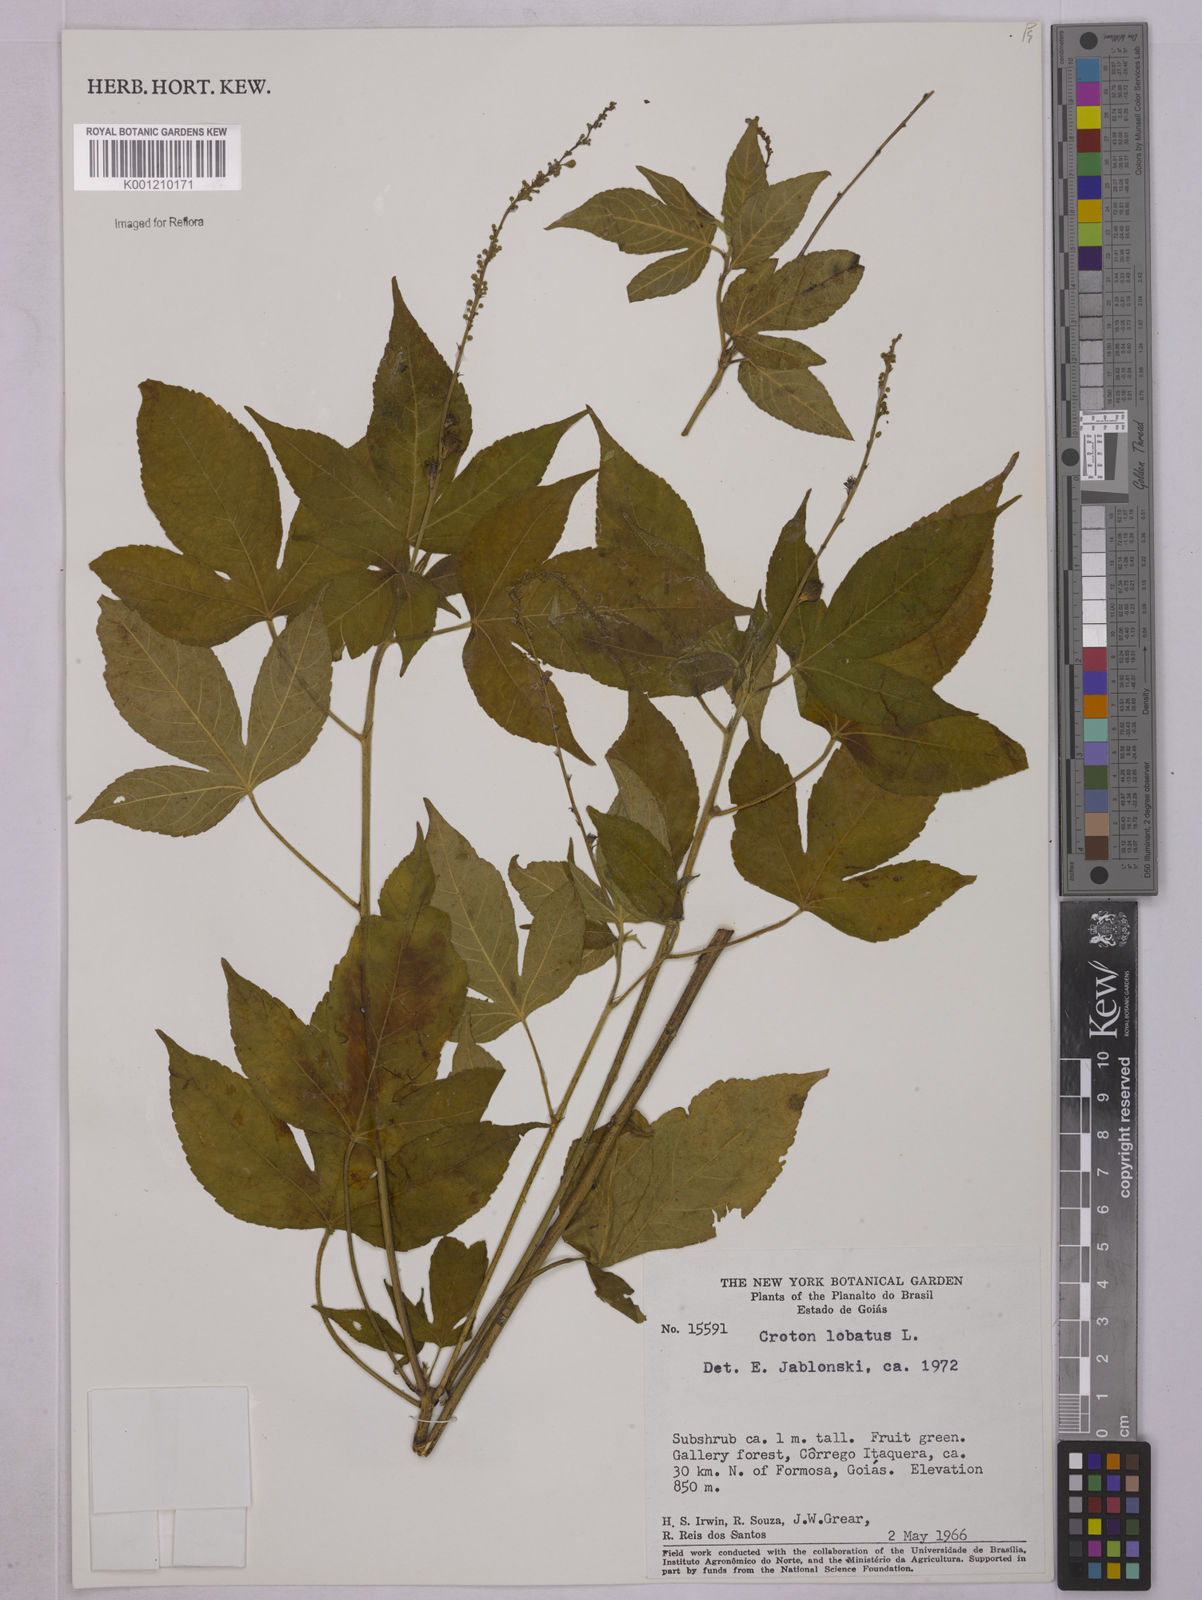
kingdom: Plantae
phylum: Tracheophyta
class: Magnoliopsida
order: Malpighiales
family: Euphorbiaceae
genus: Astraea
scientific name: Astraea lobata
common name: Lobed croton
